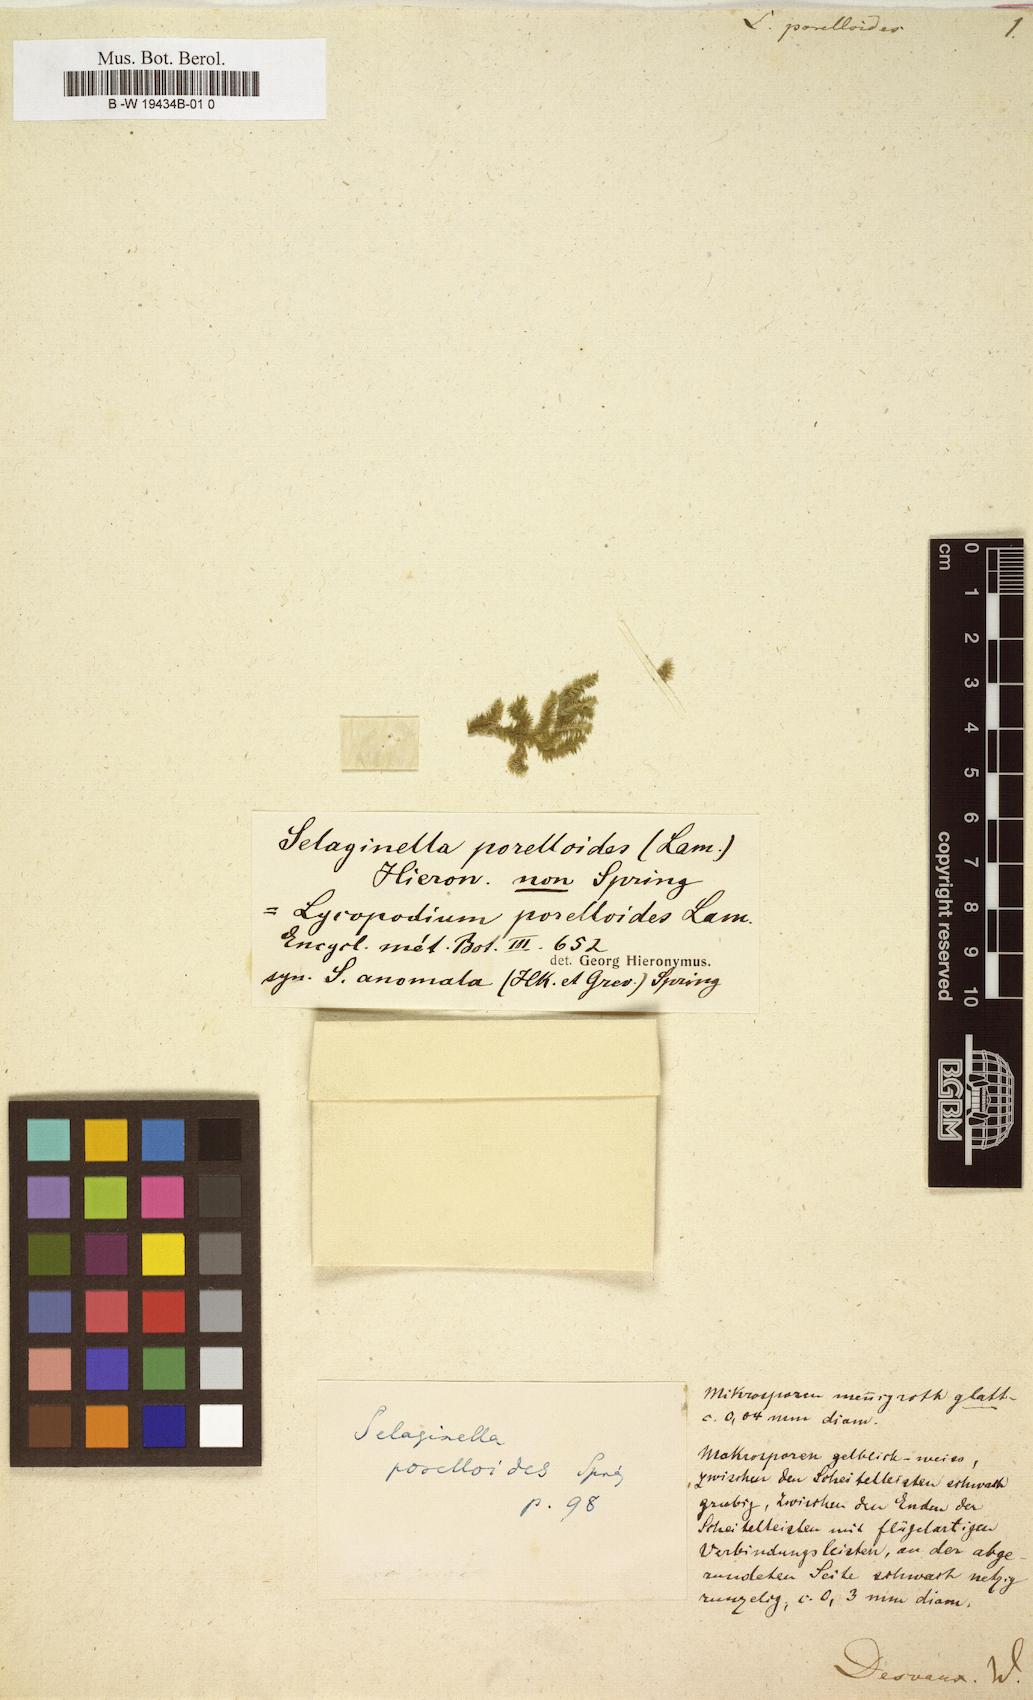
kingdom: Plantae
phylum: Tracheophyta
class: Lycopodiopsida
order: Selaginellales
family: Selaginellaceae
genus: Selaginella
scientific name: Selaginella porelloides
